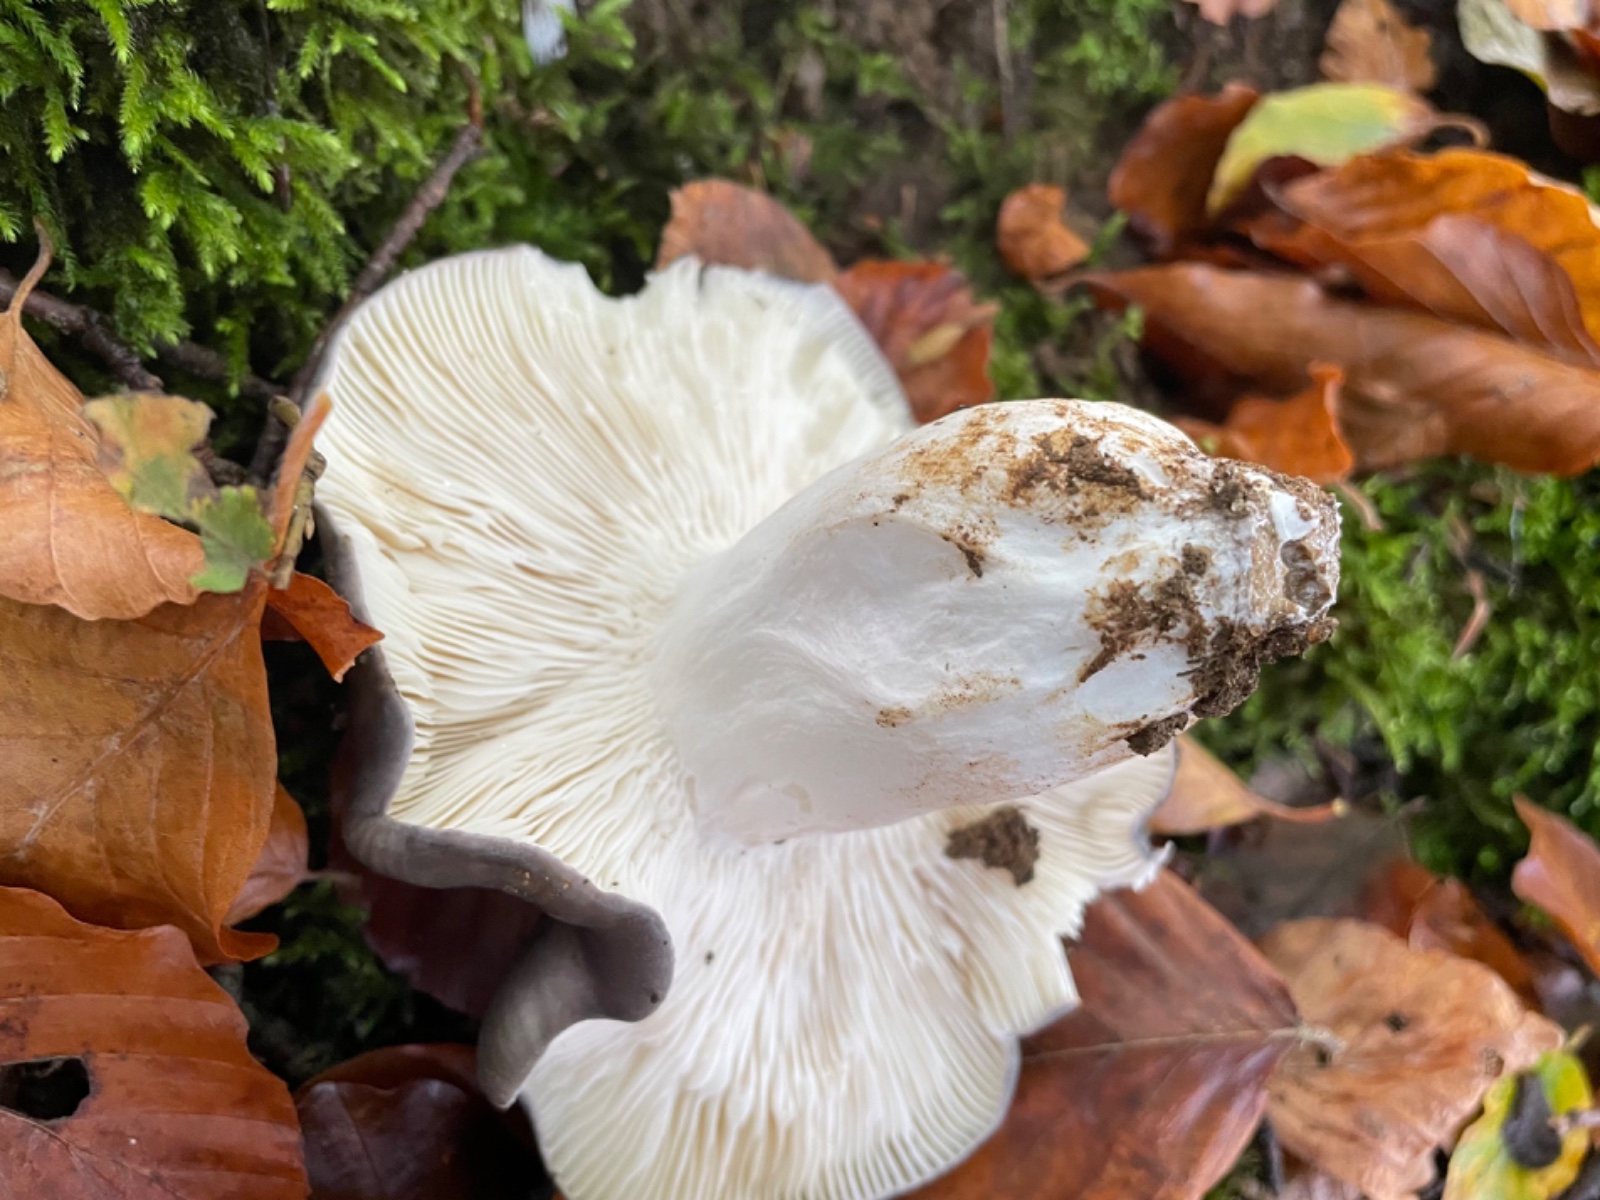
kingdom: Fungi
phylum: Basidiomycota
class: Agaricomycetes
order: Russulales
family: Russulaceae
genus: Russula
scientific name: Russula cyanoxantha
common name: broget skørhat
